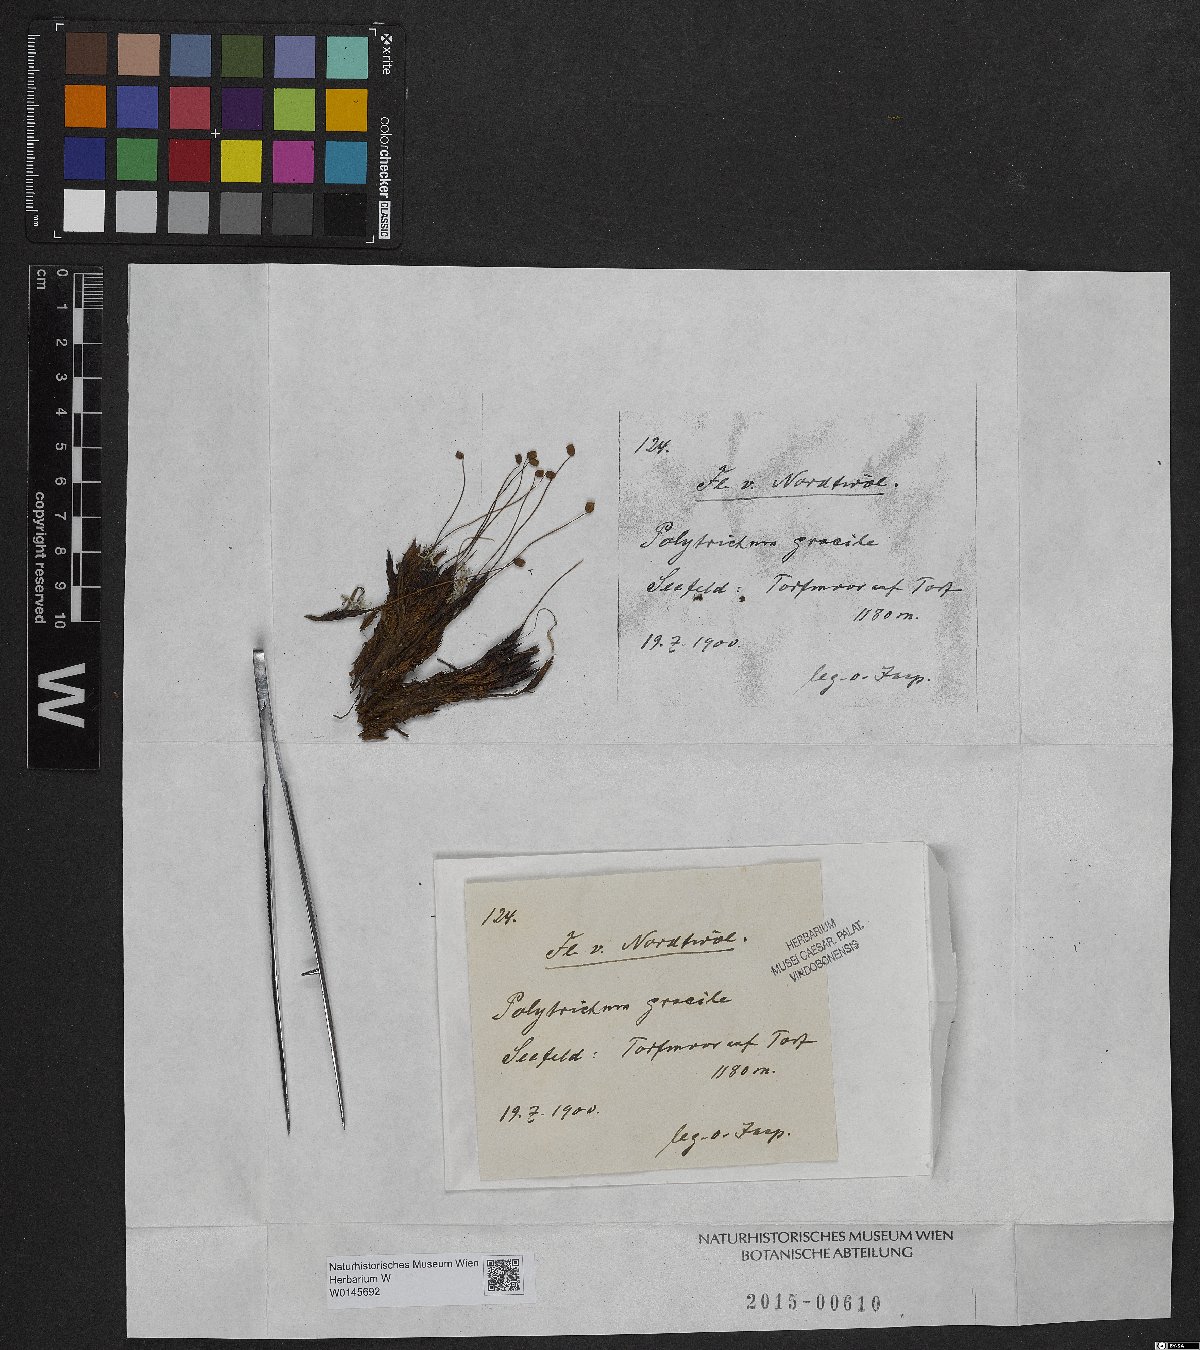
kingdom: Plantae
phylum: Bryophyta
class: Polytrichopsida
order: Polytrichales
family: Polytrichaceae
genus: Polytrichum
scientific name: Polytrichum longisetum
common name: Long-stalked haircap moss
